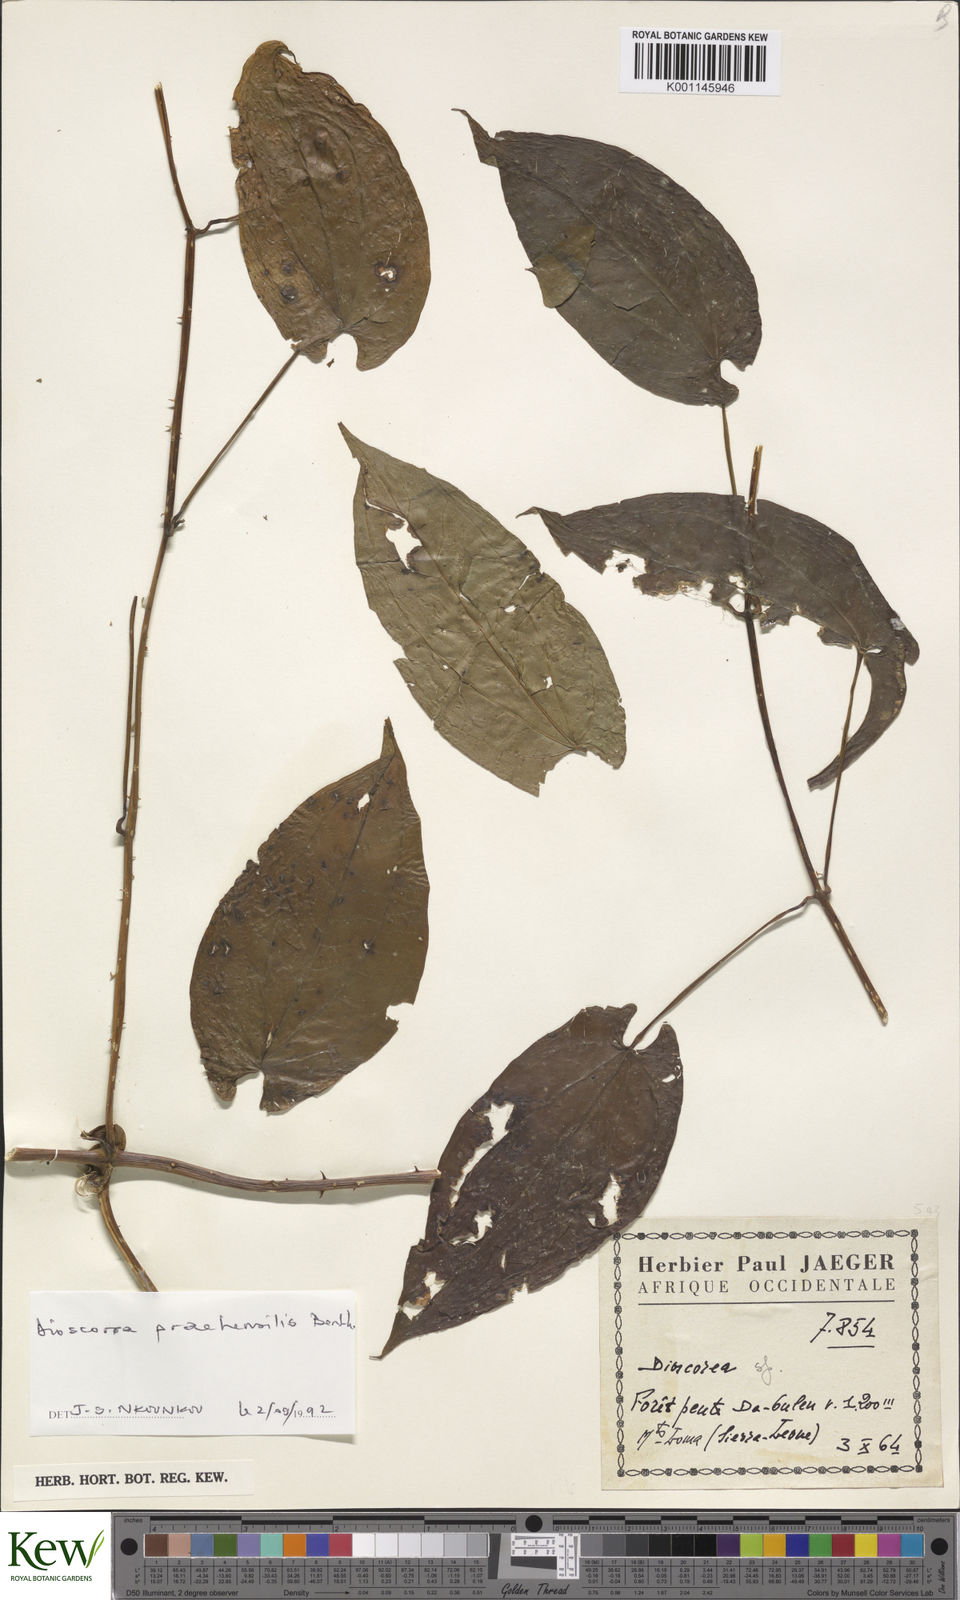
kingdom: Plantae
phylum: Tracheophyta
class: Liliopsida
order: Dioscoreales
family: Dioscoreaceae
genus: Dioscorea
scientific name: Dioscorea praehensilis
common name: Bush yam
